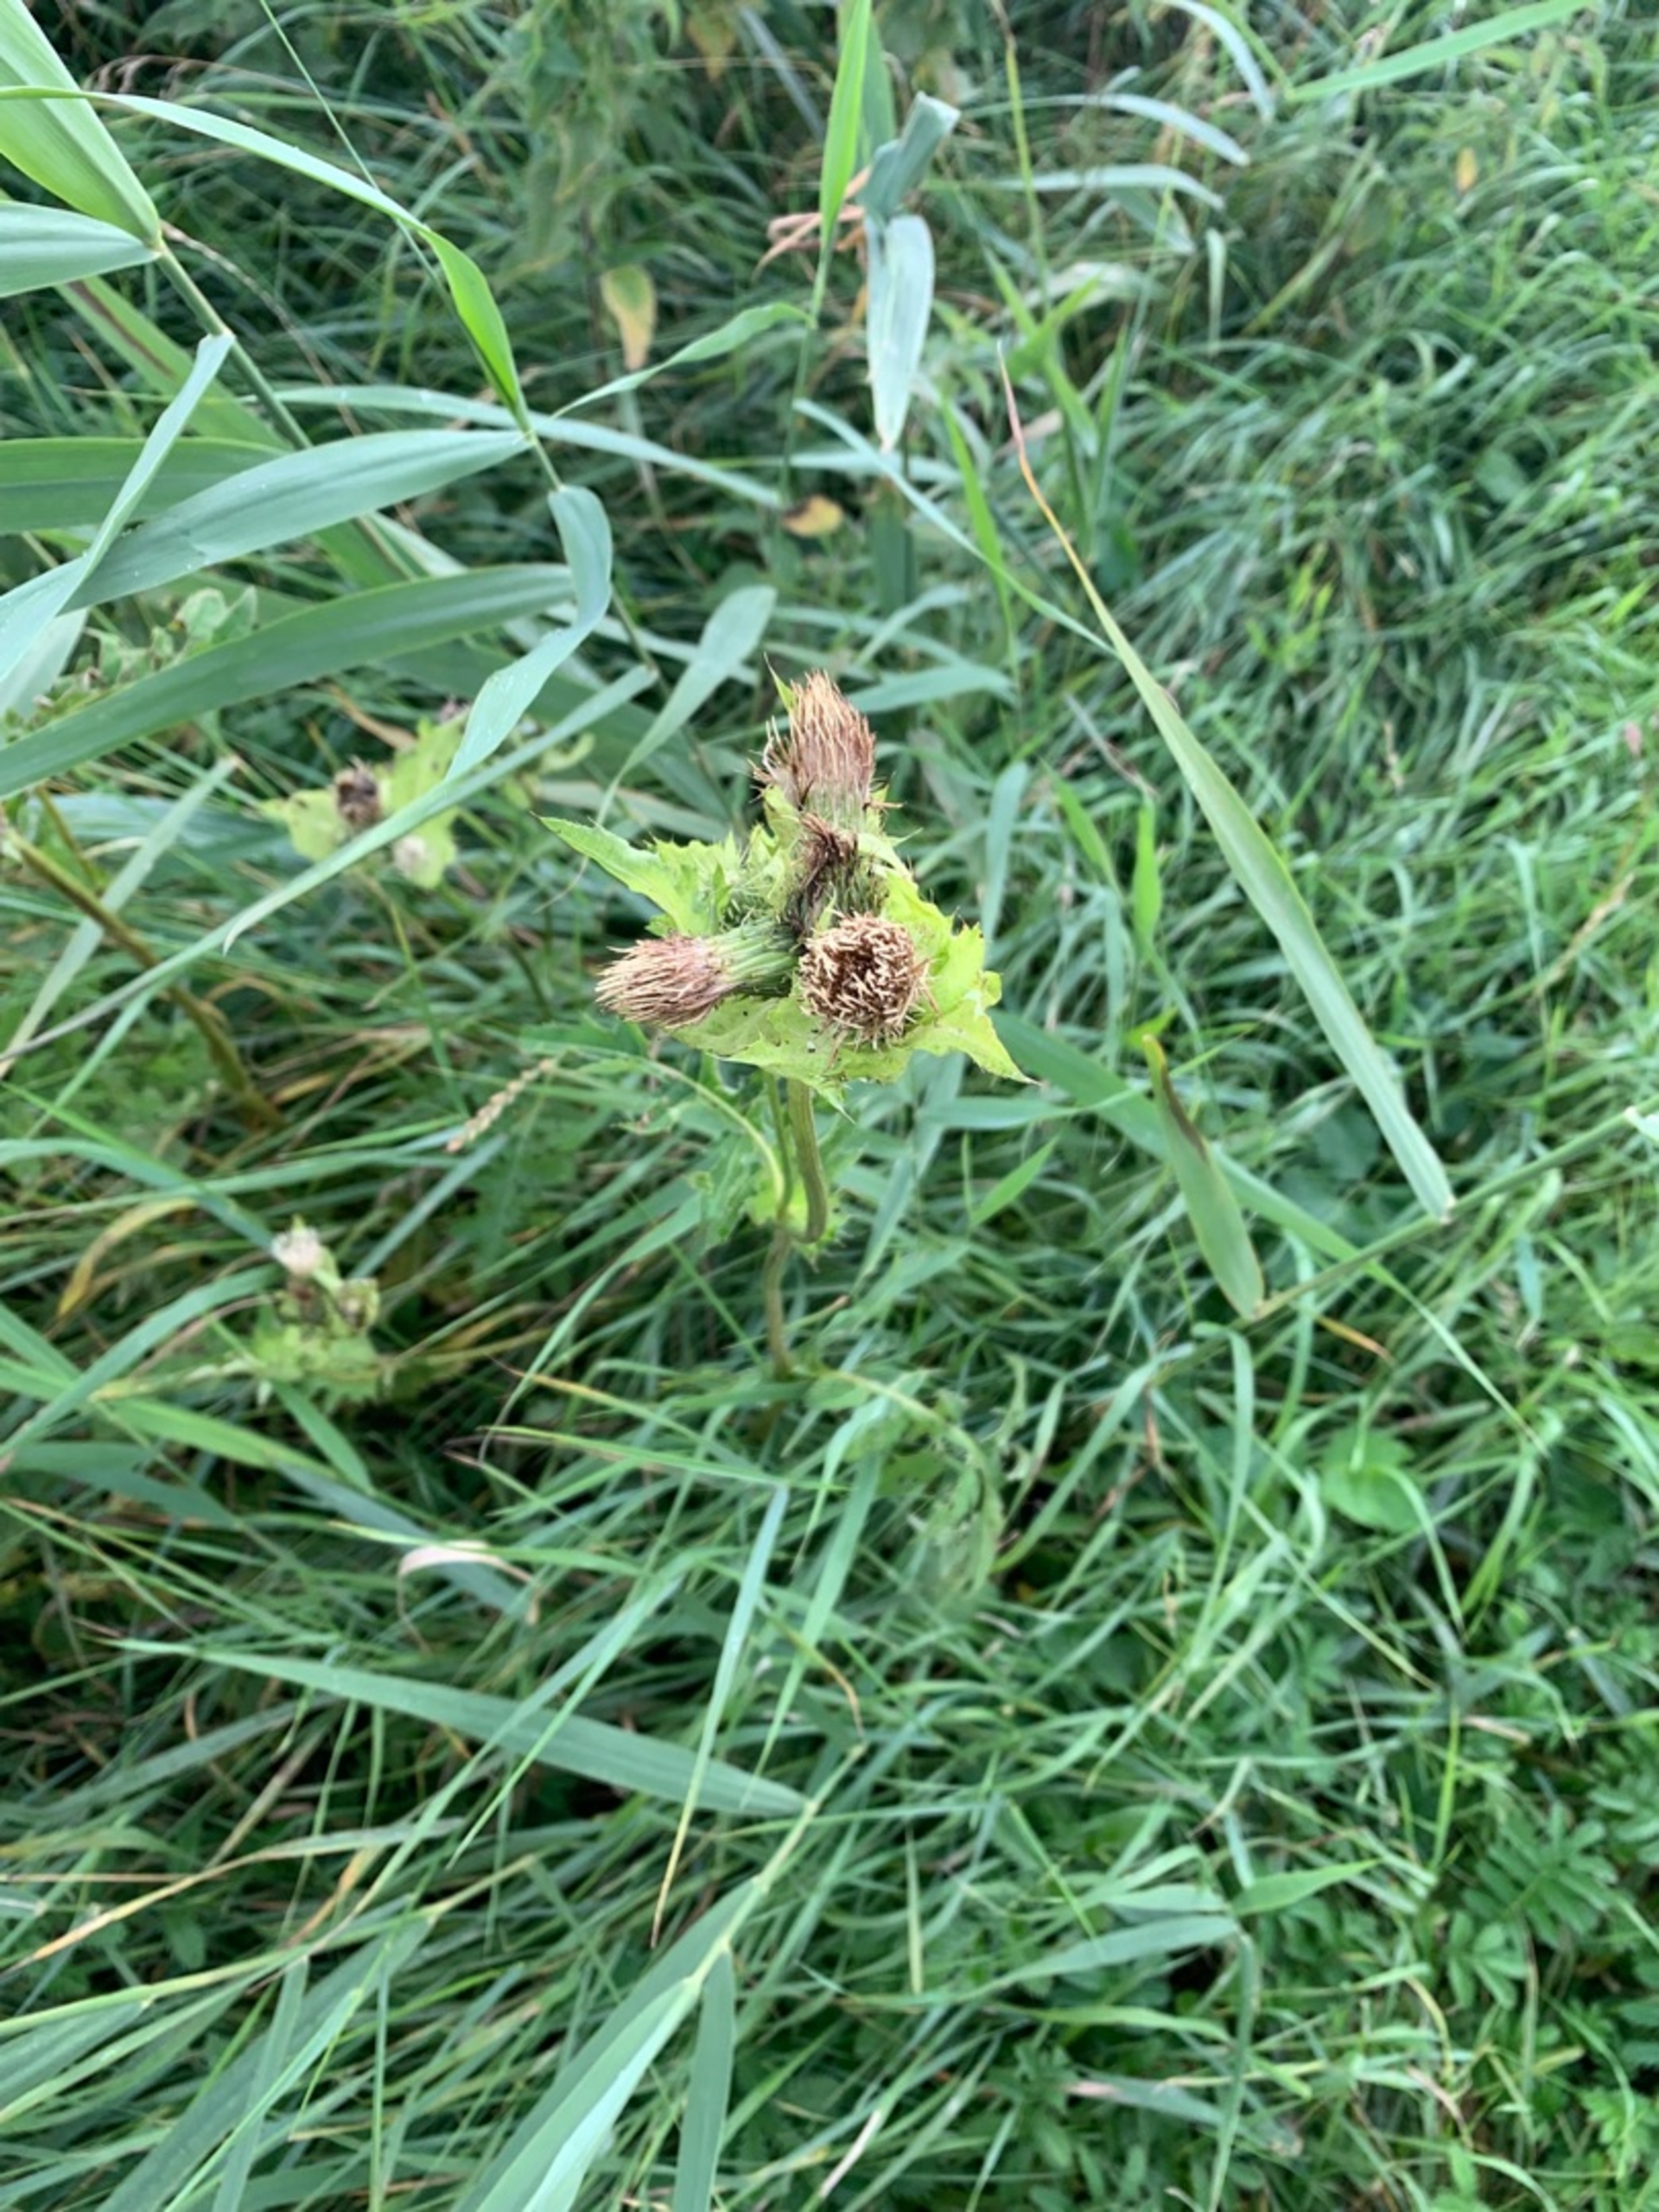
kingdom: Plantae
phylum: Tracheophyta
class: Magnoliopsida
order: Asterales
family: Asteraceae
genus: Cirsium
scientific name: Cirsium oleraceum
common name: Kål-tidsel
